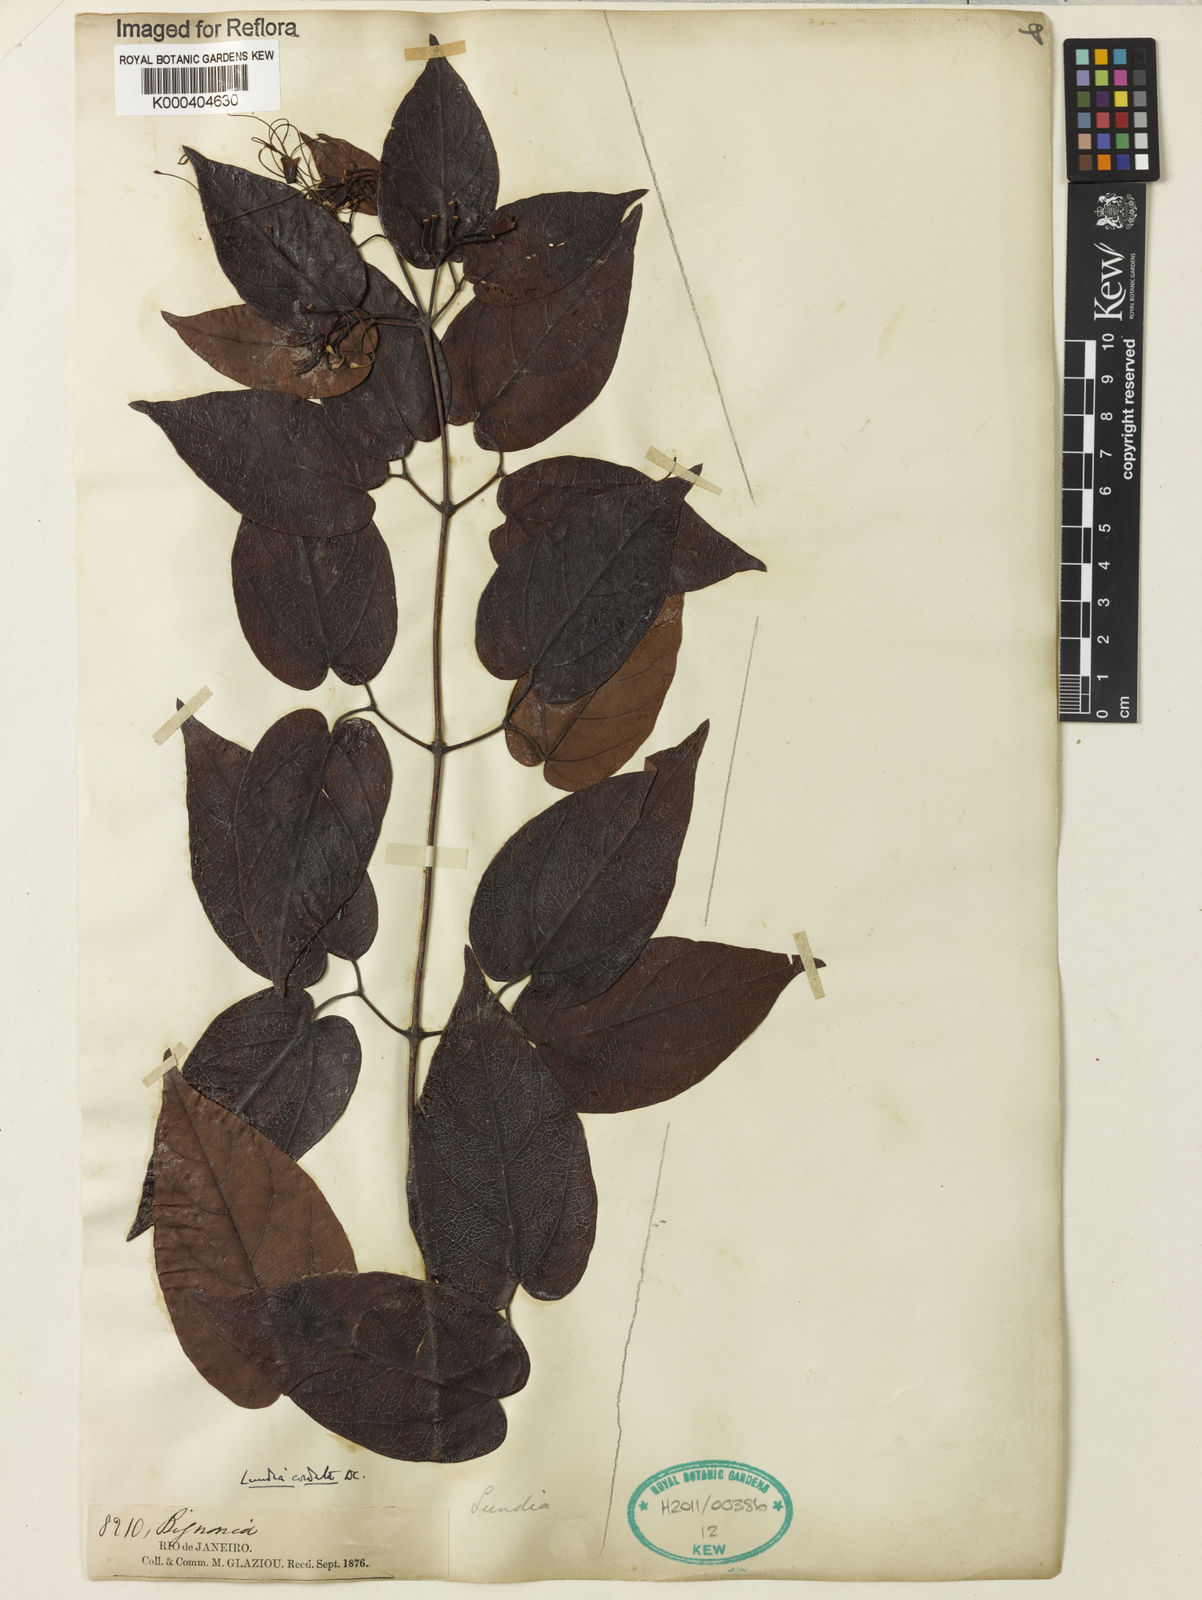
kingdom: Plantae
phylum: Tracheophyta
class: Magnoliopsida
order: Lamiales
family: Bignoniaceae
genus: Lundia
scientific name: Lundia corymbifera
